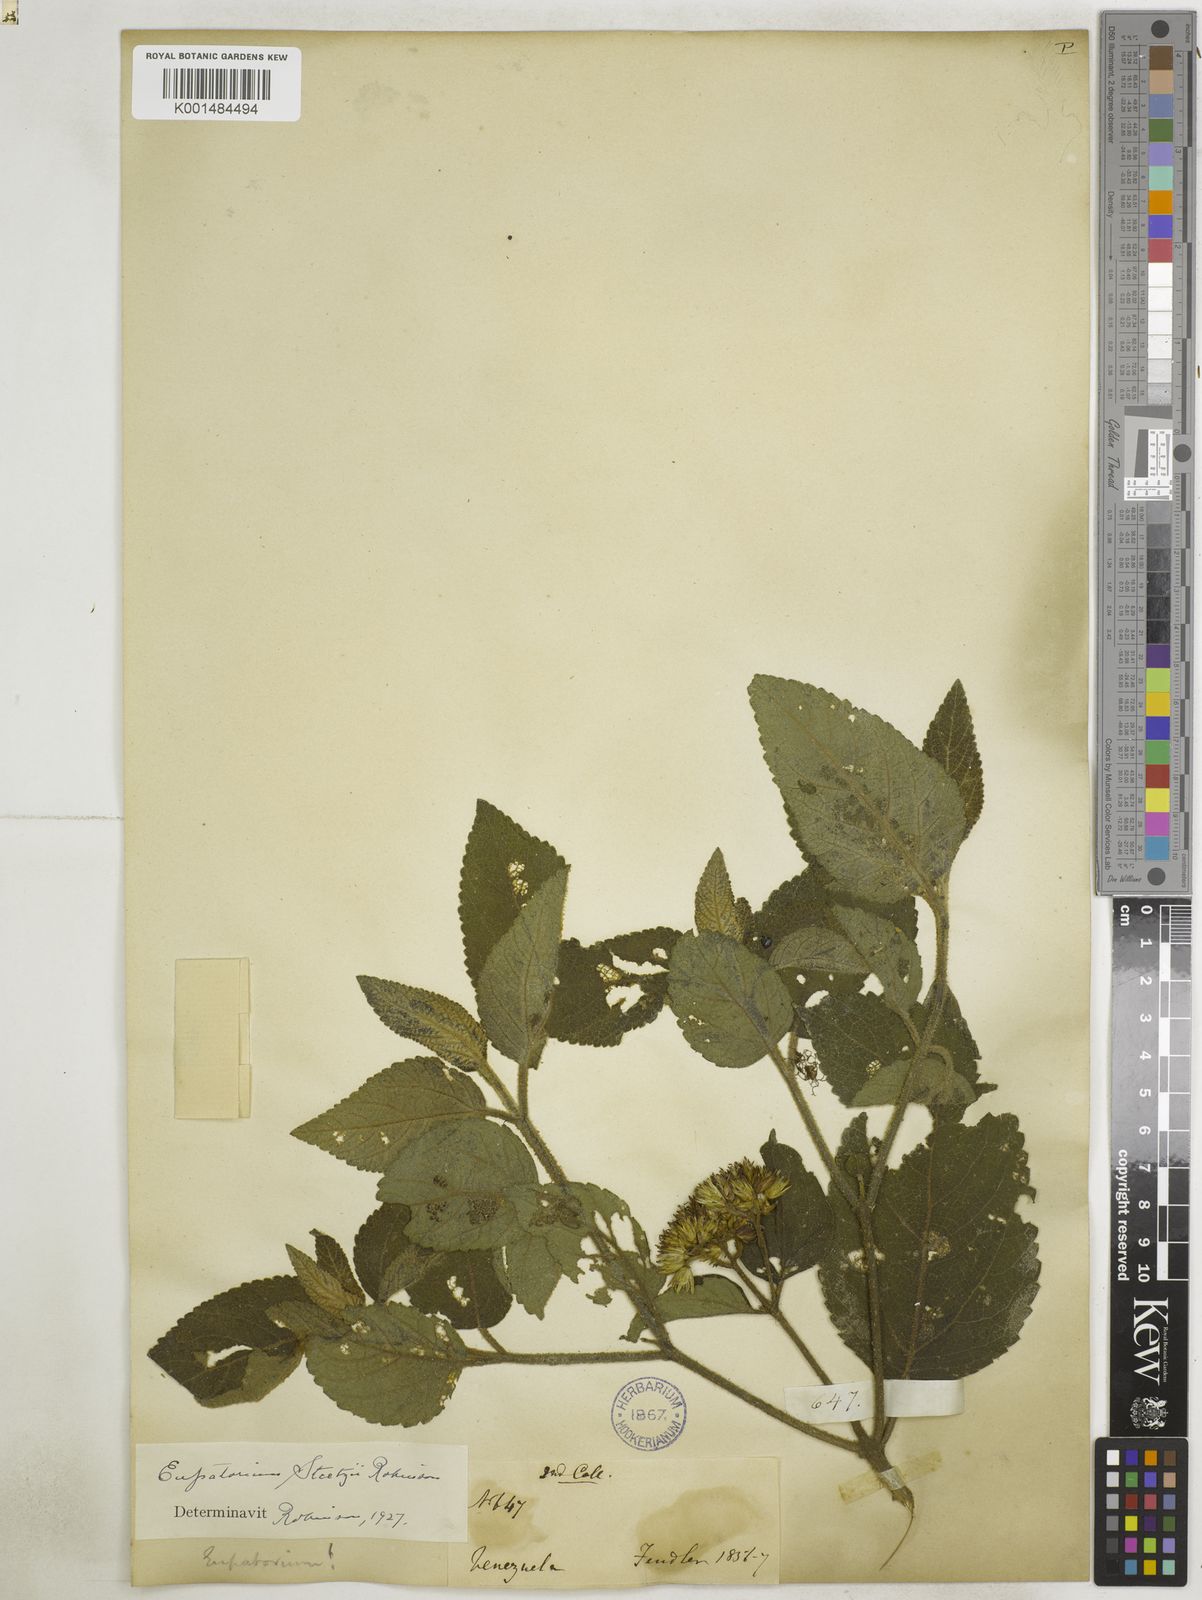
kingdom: Plantae
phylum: Tracheophyta
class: Magnoliopsida
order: Asterales
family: Asteraceae
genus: Badilloa
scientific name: Badilloa steetzii
